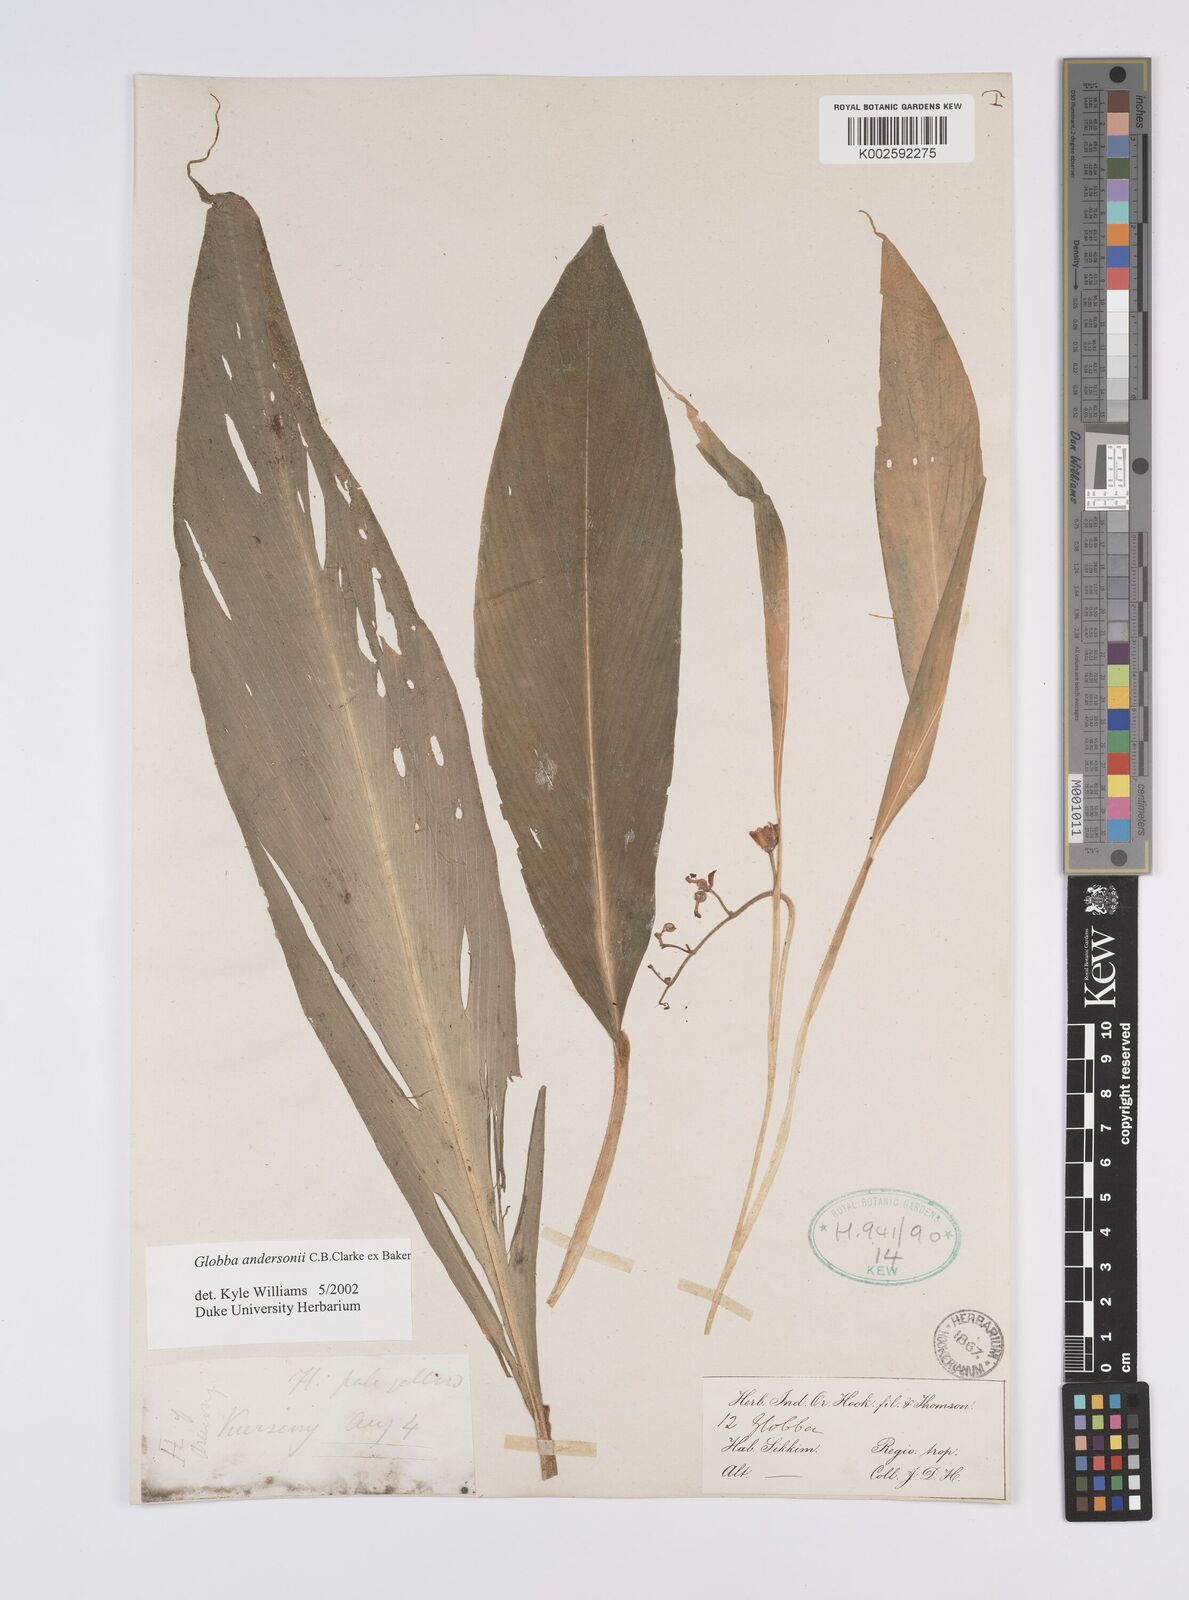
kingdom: Plantae
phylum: Tracheophyta
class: Liliopsida
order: Zingiberales
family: Zingiberaceae
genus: Globba
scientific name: Globba andersonii
